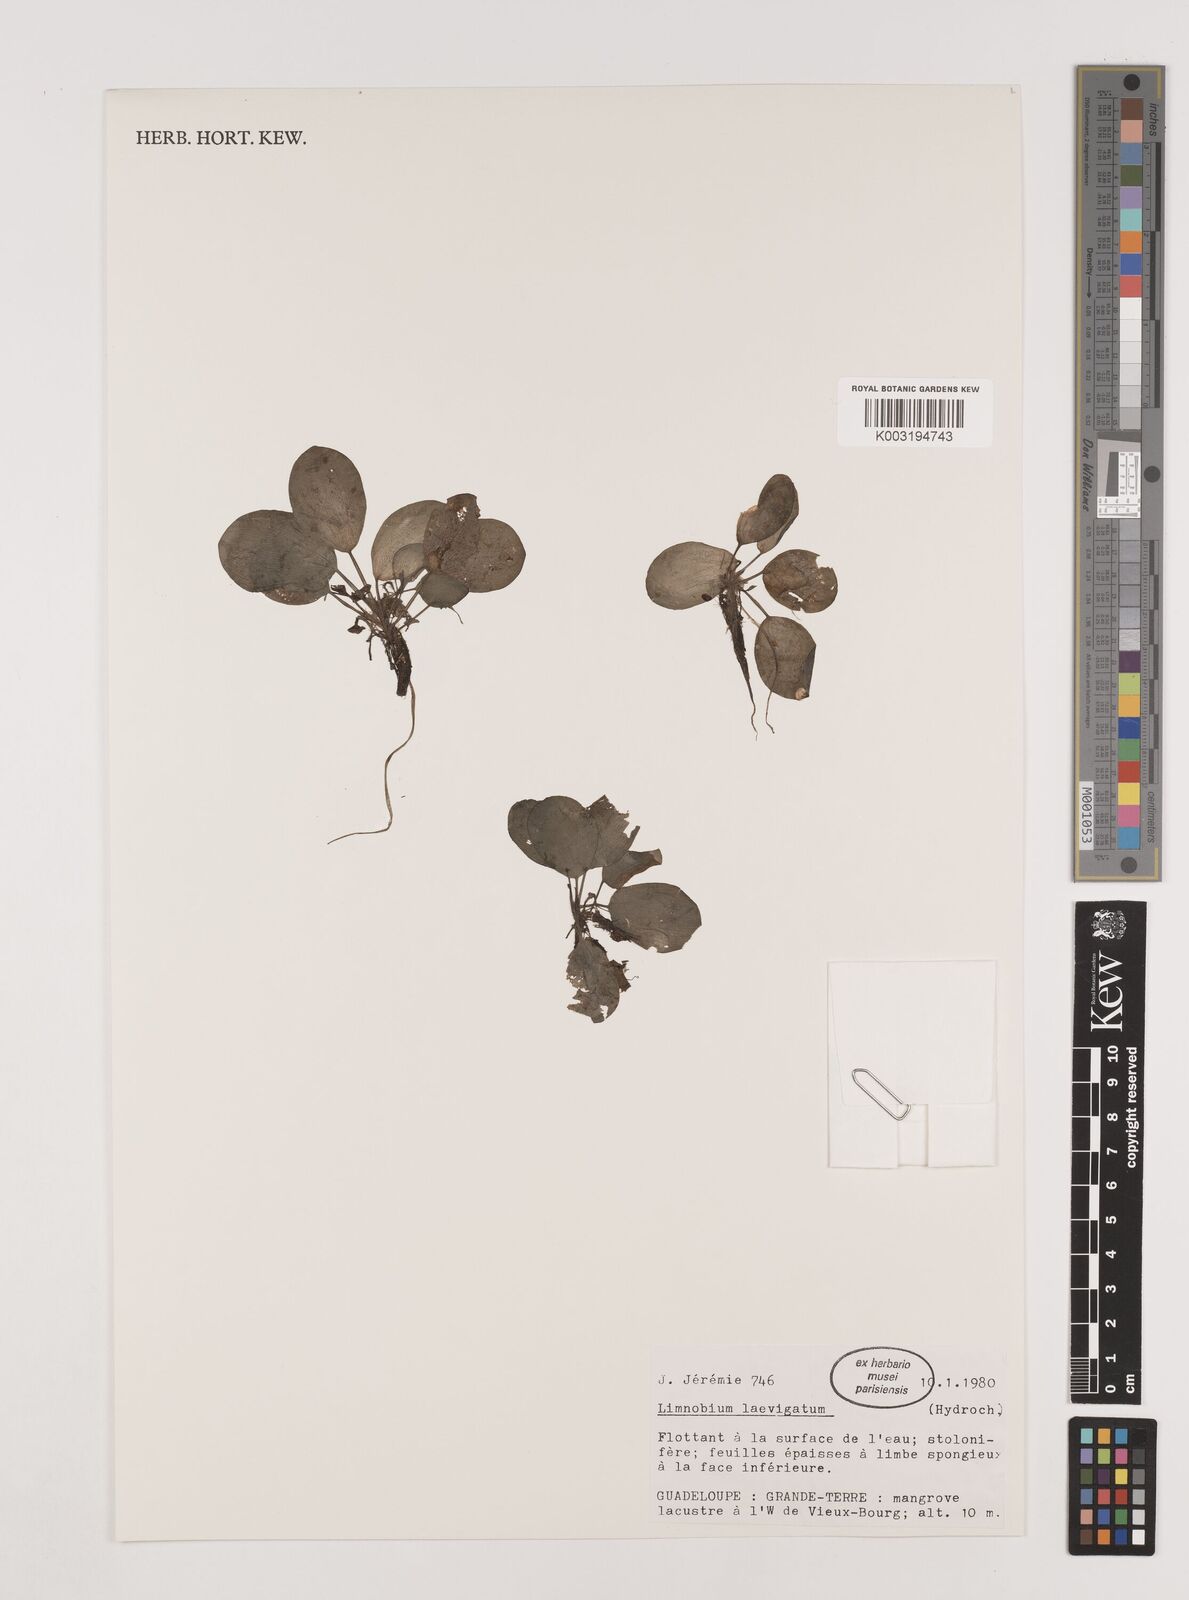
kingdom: Plantae
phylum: Tracheophyta
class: Liliopsida
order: Alismatales
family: Hydrocharitaceae
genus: Hydrocharis
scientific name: Hydrocharis laevigata
